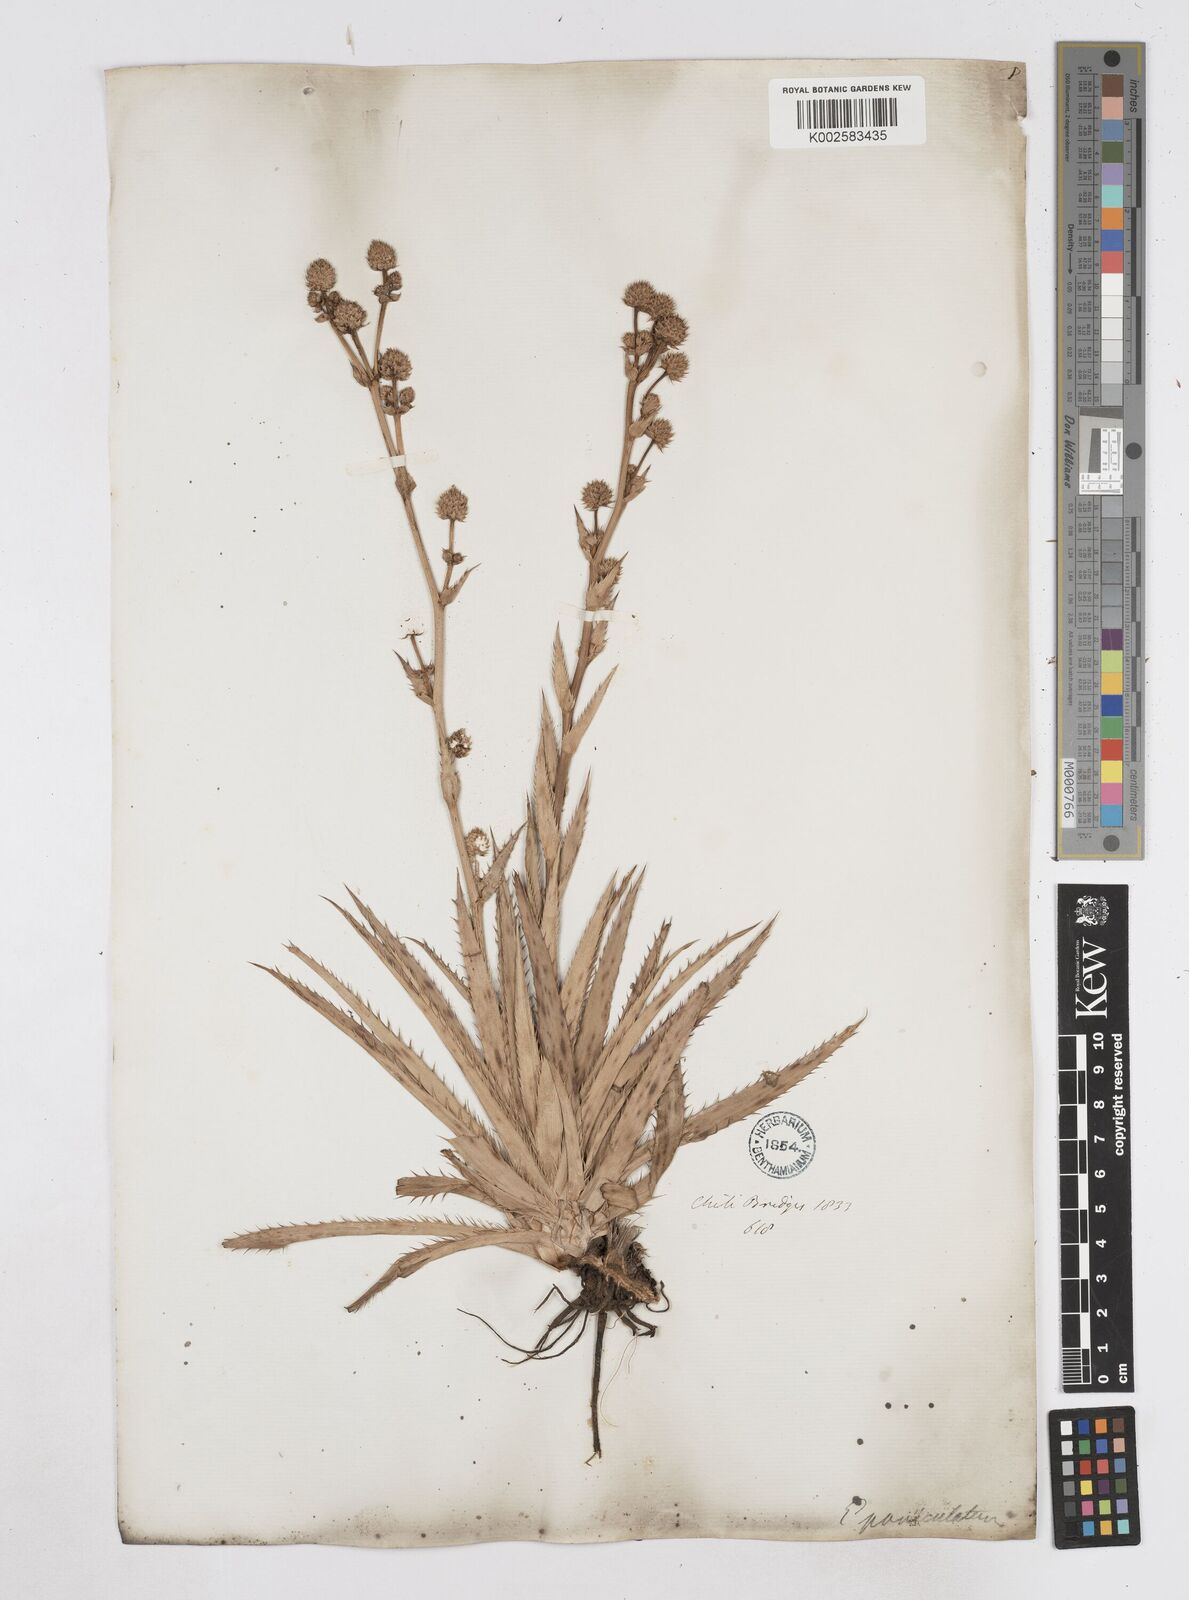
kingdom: Plantae
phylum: Tracheophyta
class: Magnoliopsida
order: Apiales
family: Apiaceae
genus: Eryngium
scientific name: Eryngium humboldtii
